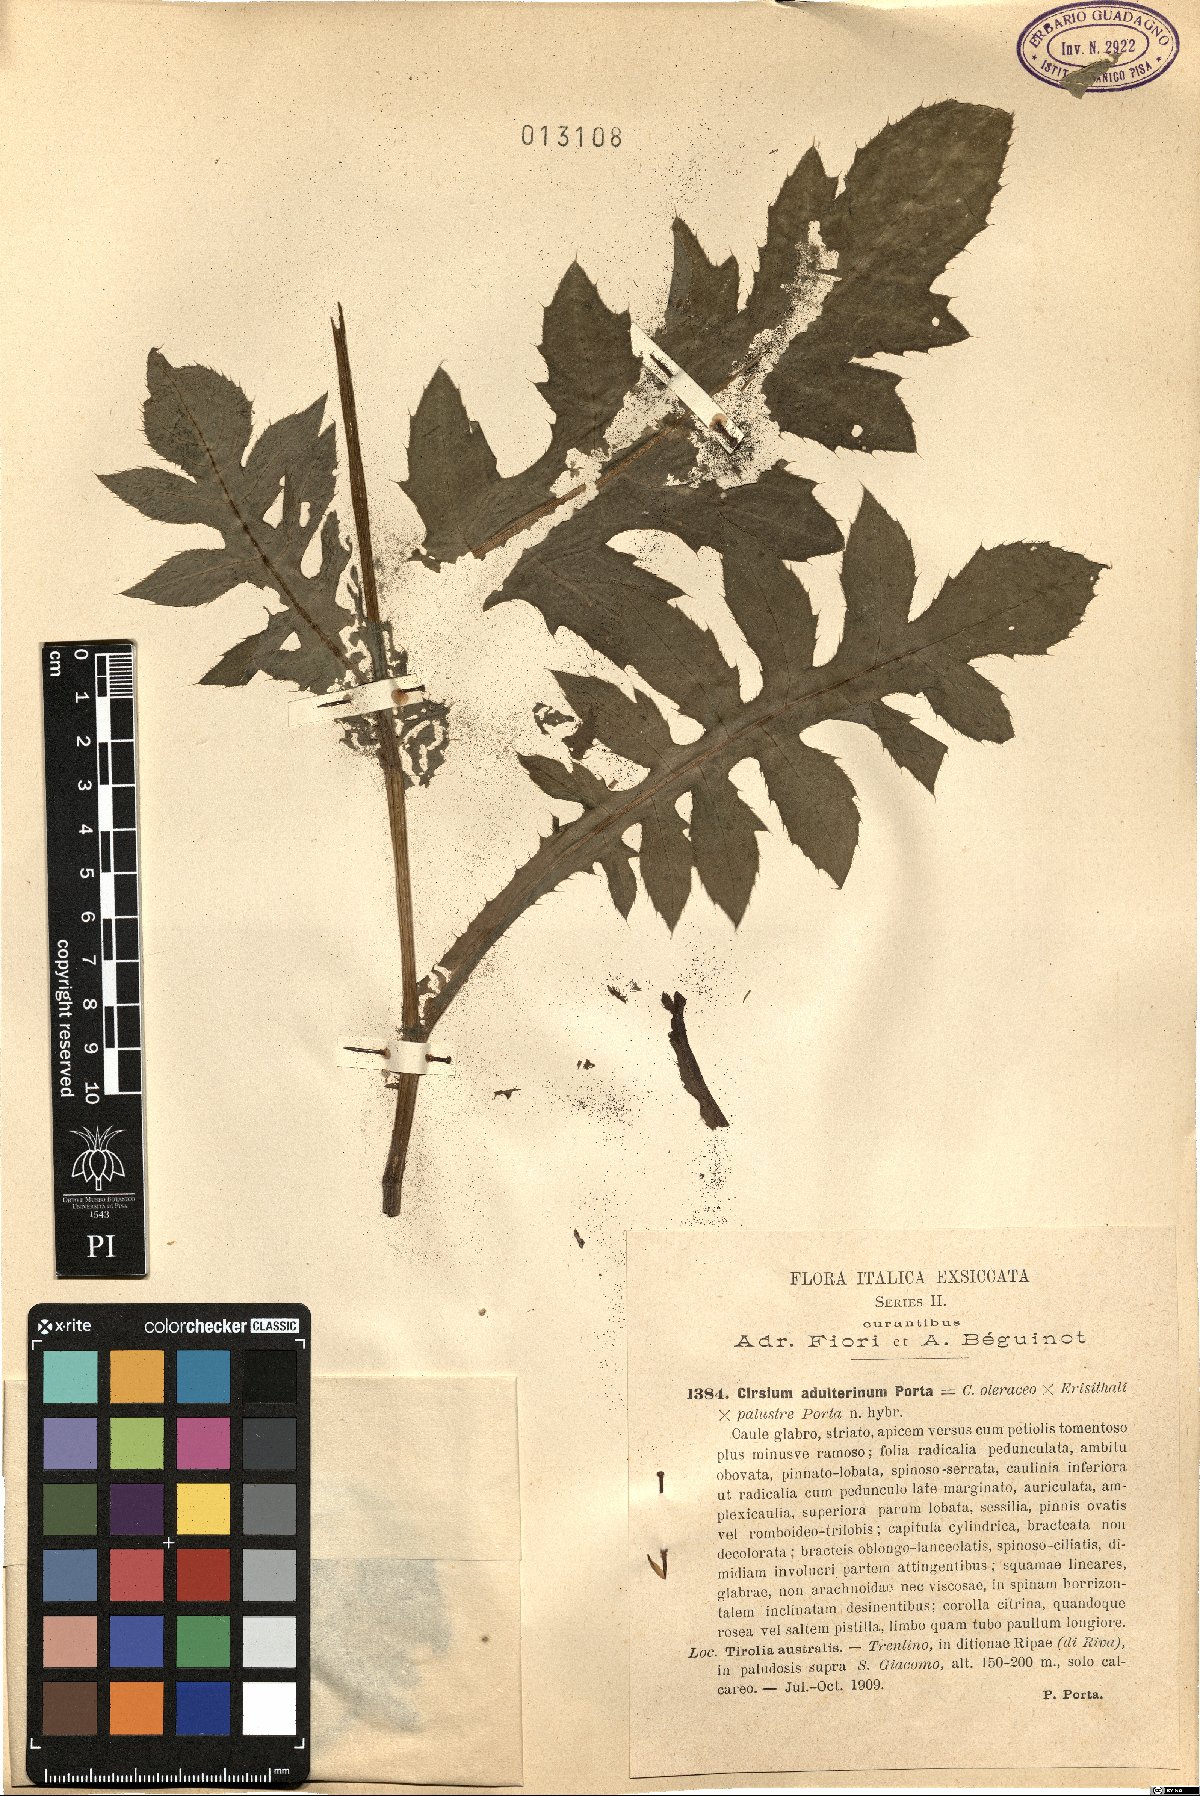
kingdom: Plantae
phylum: Tracheophyta
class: Magnoliopsida
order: Asterales
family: Asteraceae
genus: Cirsium
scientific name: Cirsium adulterinum
